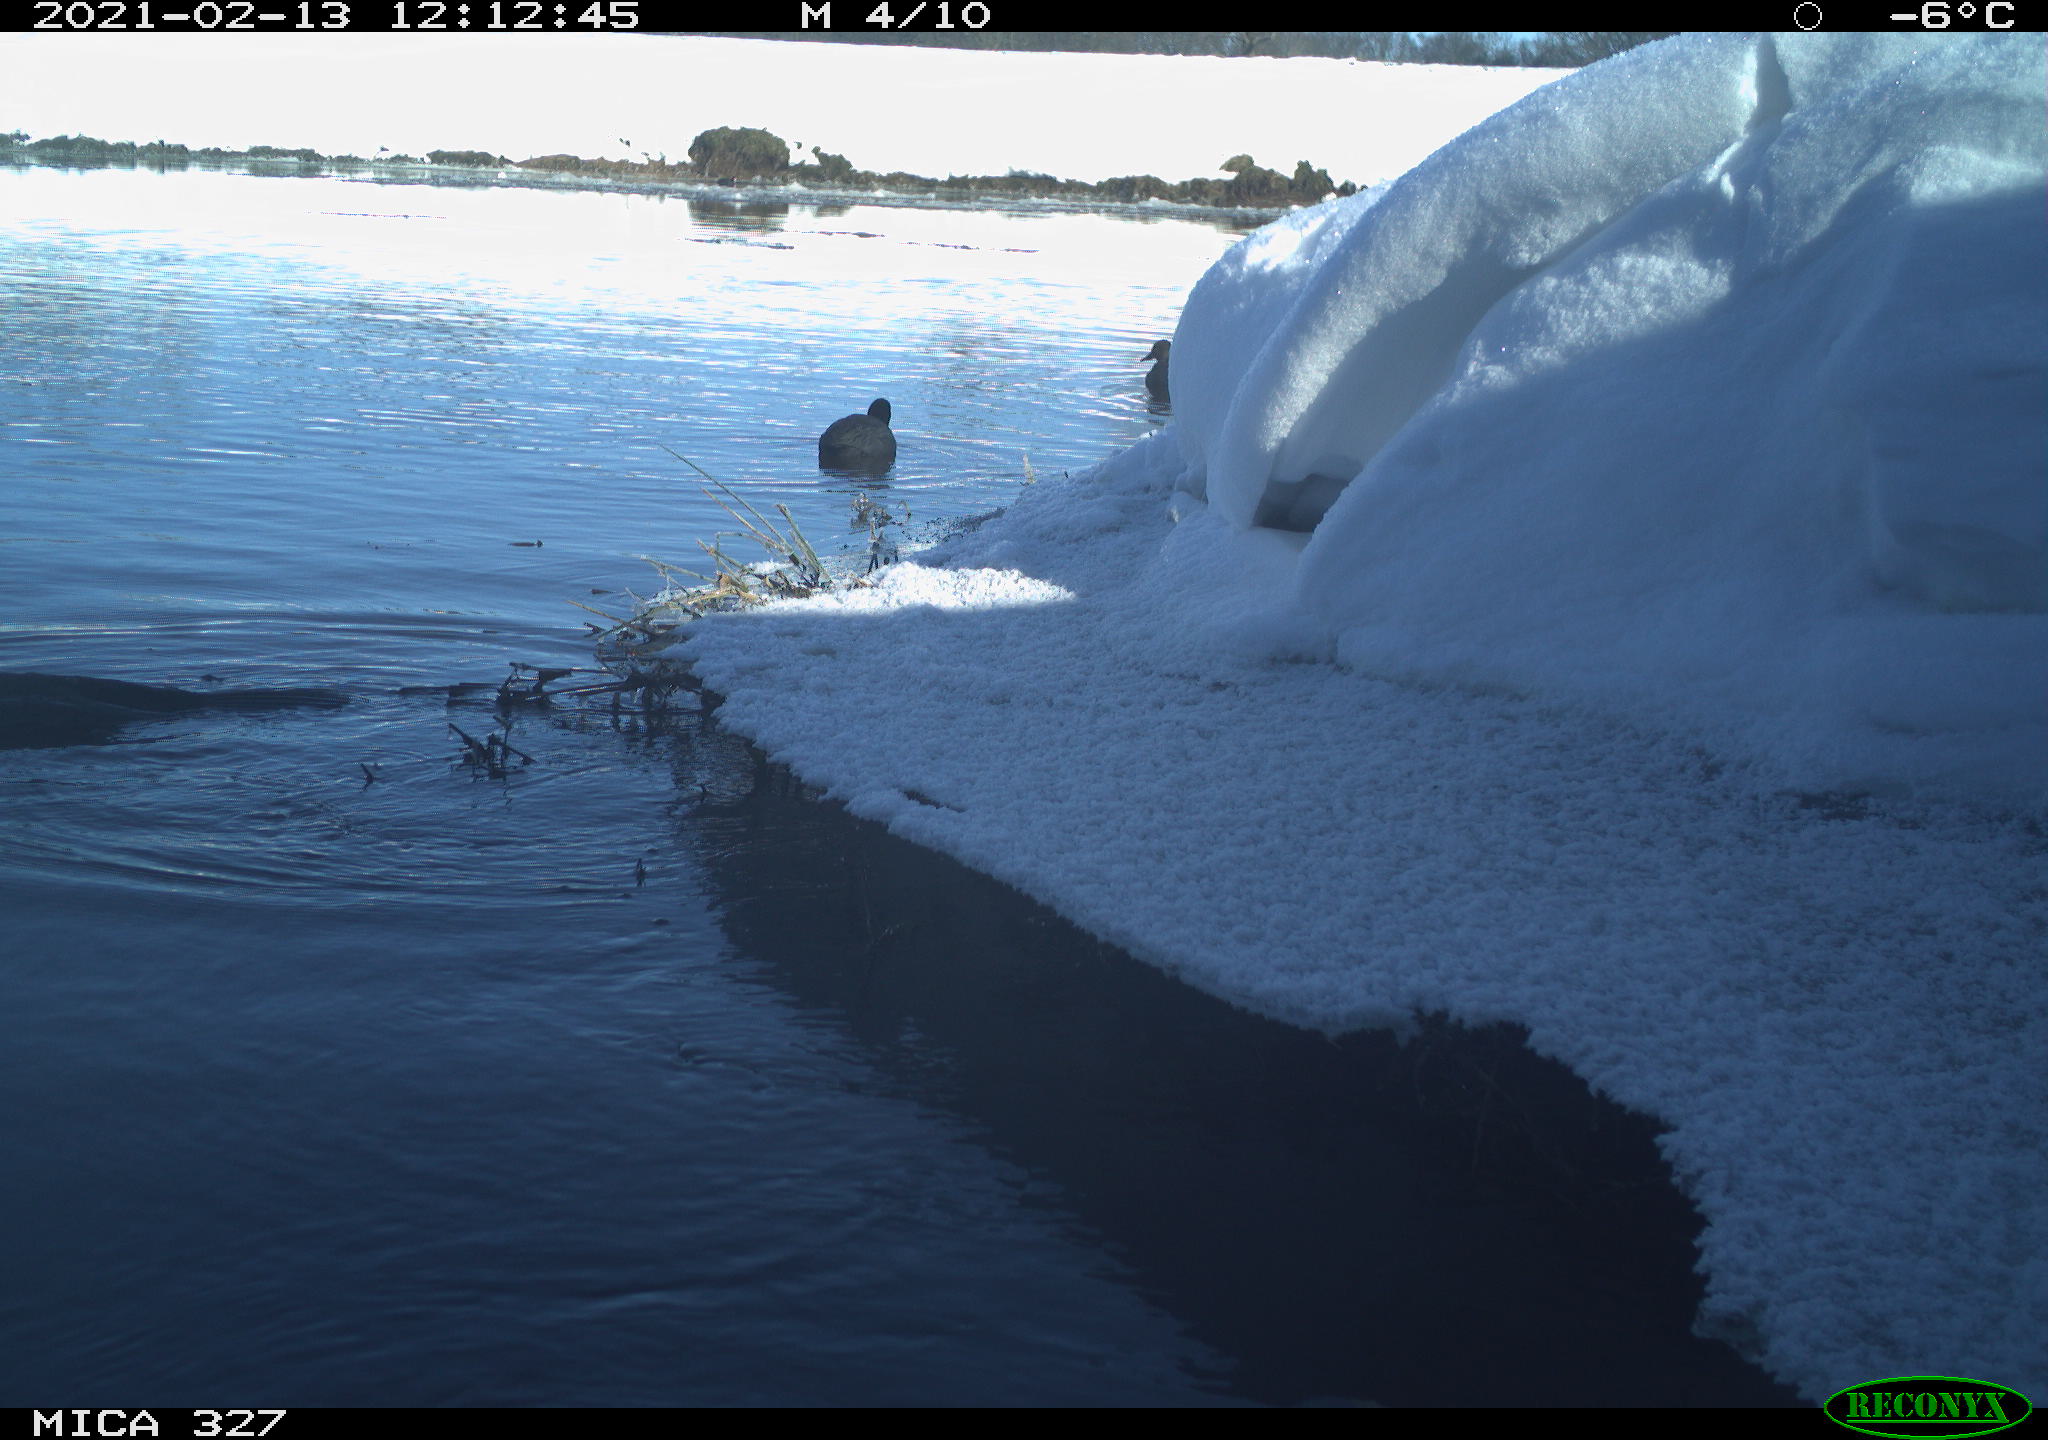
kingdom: Animalia
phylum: Chordata
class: Aves
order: Suliformes
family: Phalacrocoracidae
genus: Phalacrocorax
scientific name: Phalacrocorax carbo
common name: Great cormorant
